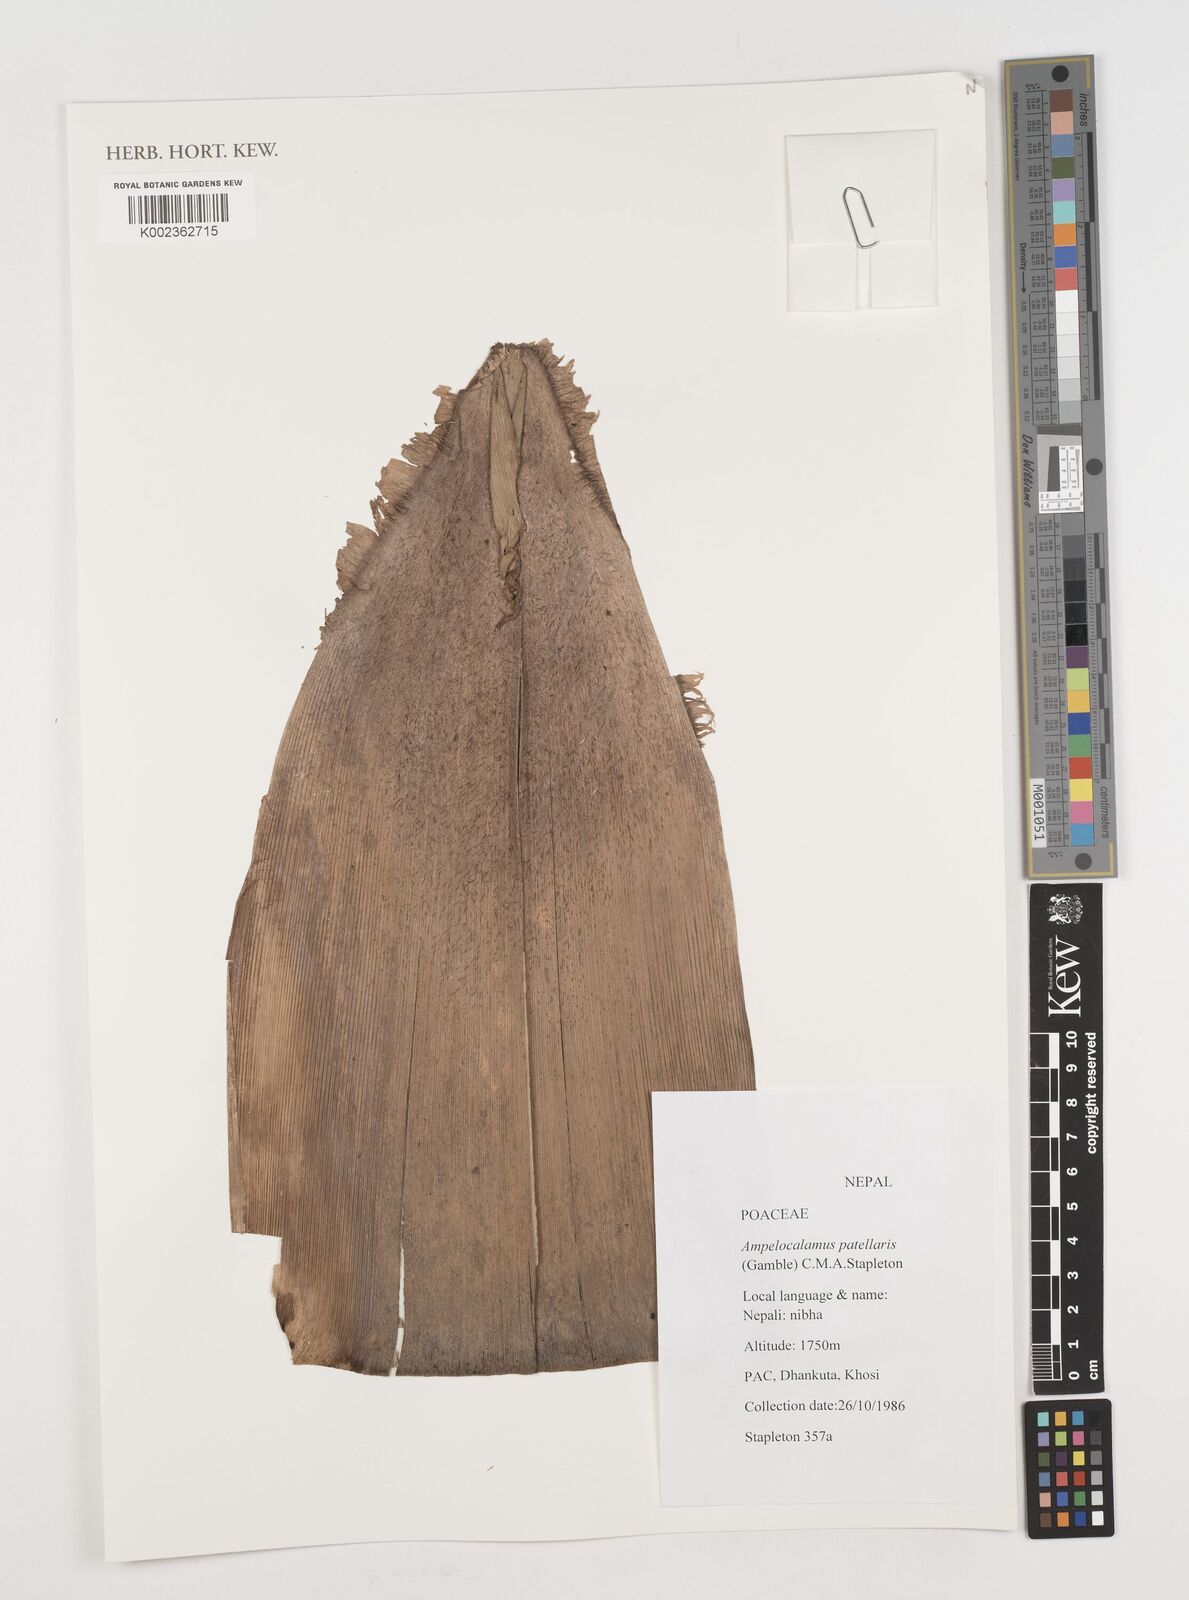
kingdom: Plantae
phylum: Tracheophyta
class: Liliopsida
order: Poales
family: Poaceae
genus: Ampelocalamus
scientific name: Ampelocalamus patellaris
